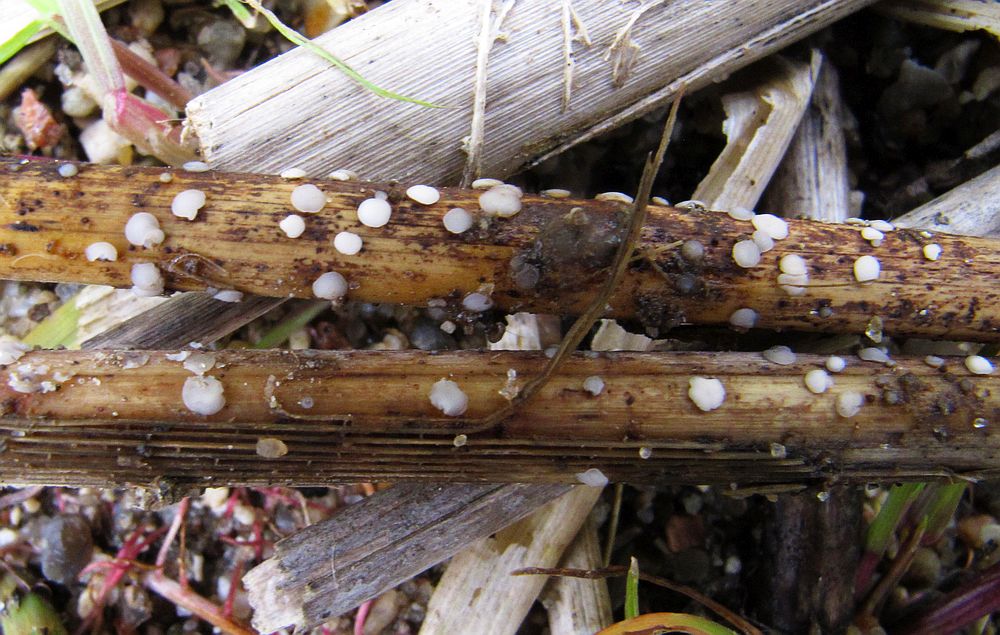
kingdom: Fungi
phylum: Ascomycota
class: Leotiomycetes
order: Helotiales
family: Mollisiaceae
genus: Mollisia
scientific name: Mollisia hydrophila
